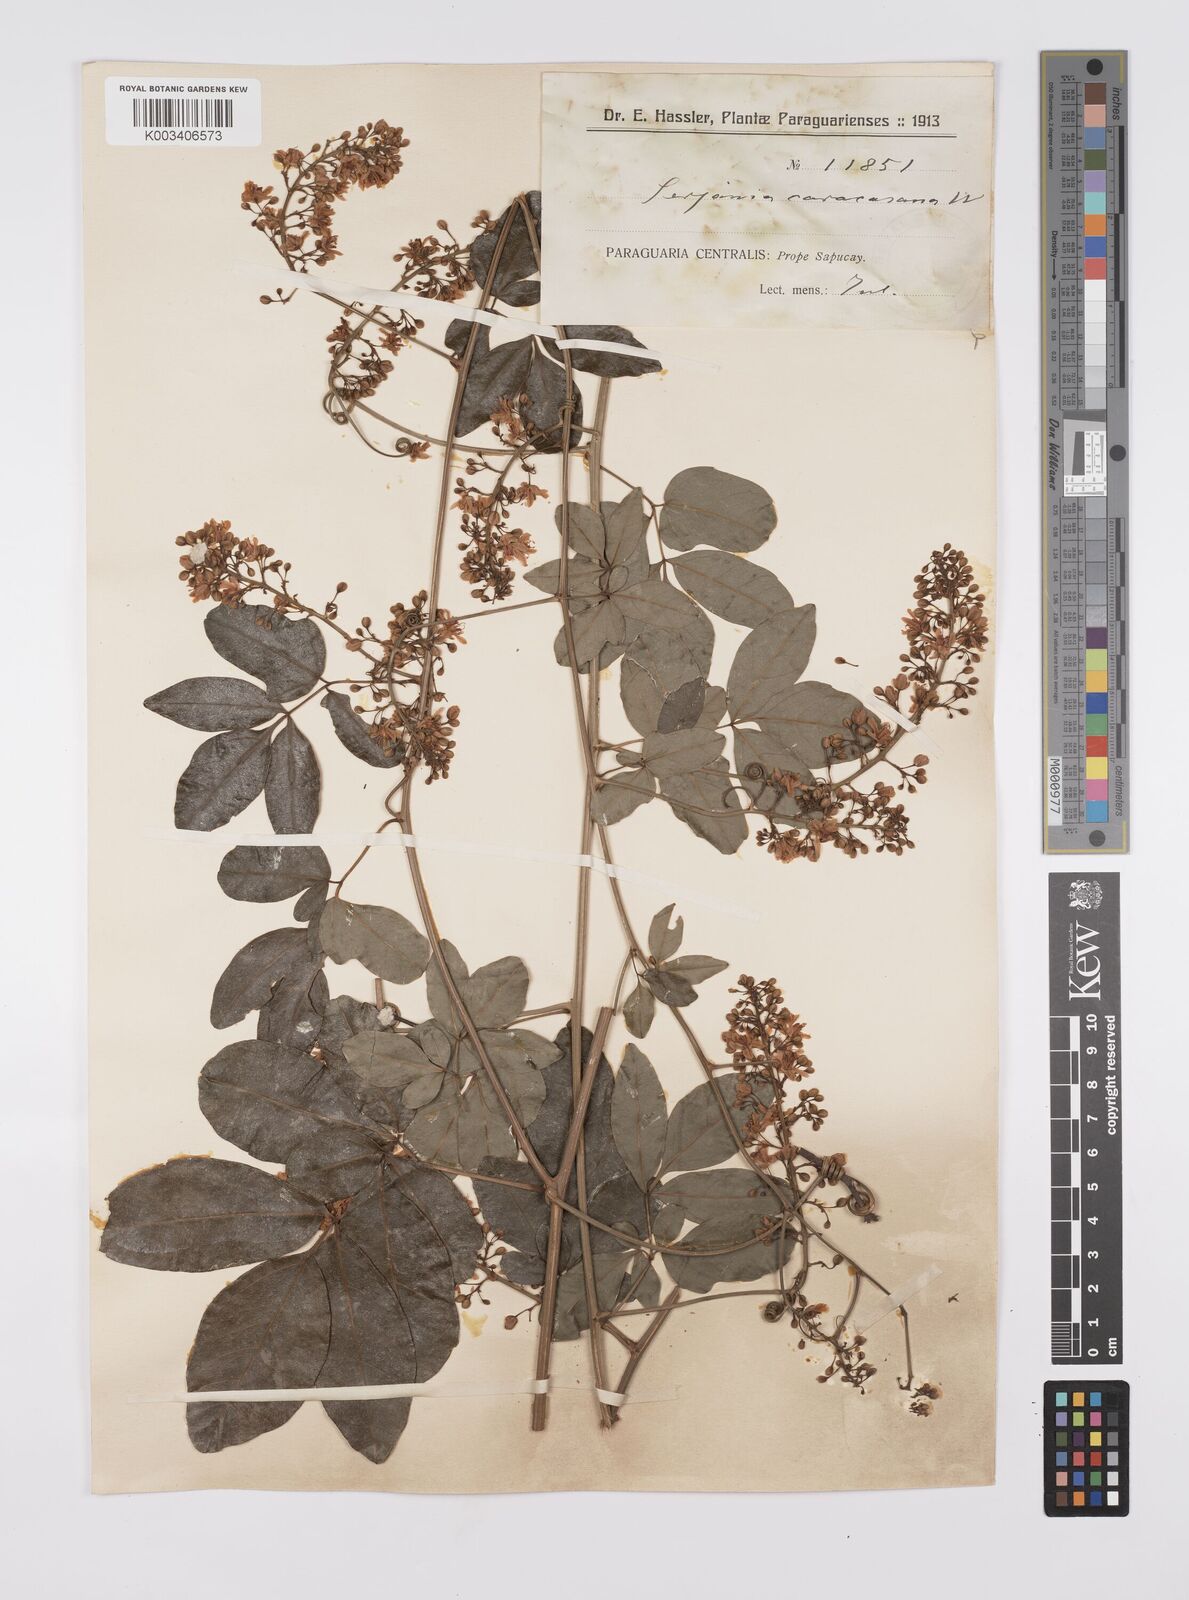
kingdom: Plantae
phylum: Tracheophyta
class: Magnoliopsida
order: Sapindales
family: Sapindaceae
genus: Serjania
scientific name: Serjania caracasana
